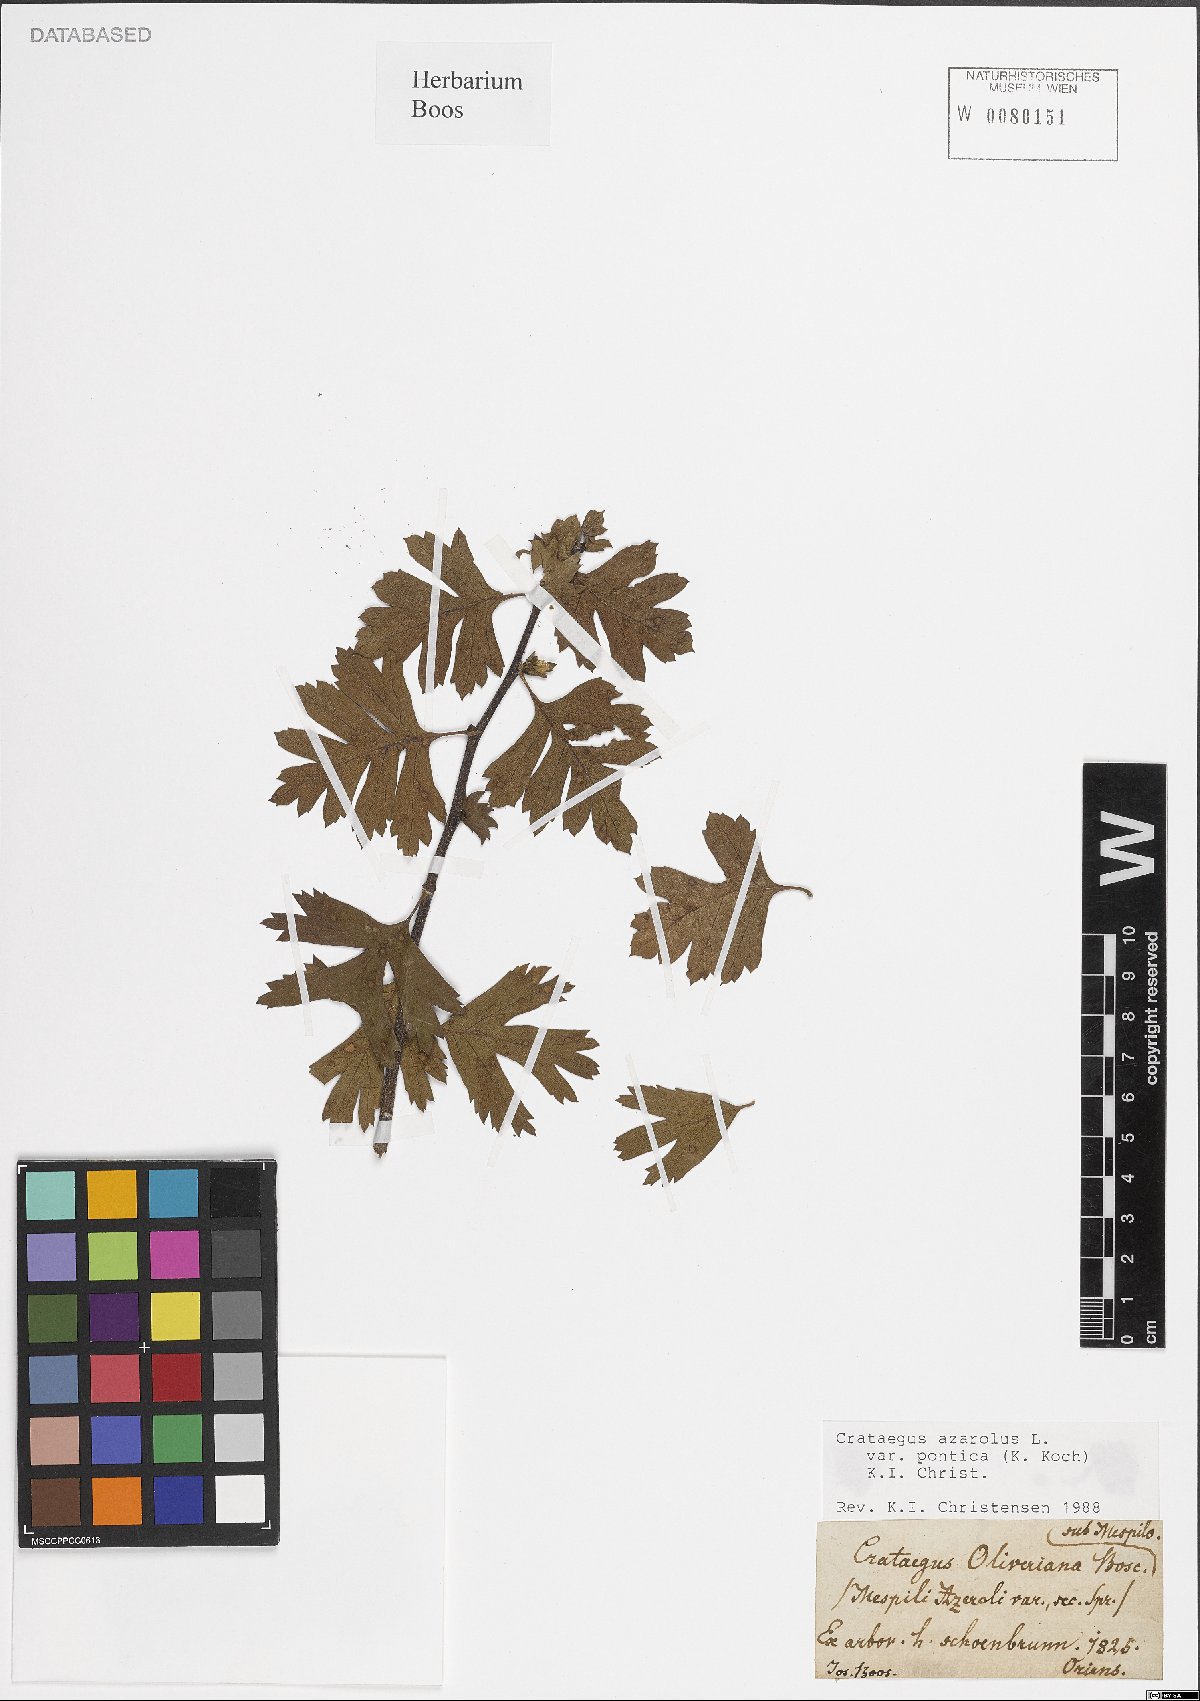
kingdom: Plantae
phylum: Tracheophyta
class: Magnoliopsida
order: Rosales
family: Rosaceae
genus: Crataegus
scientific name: Crataegus azarolus
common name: Azarole
